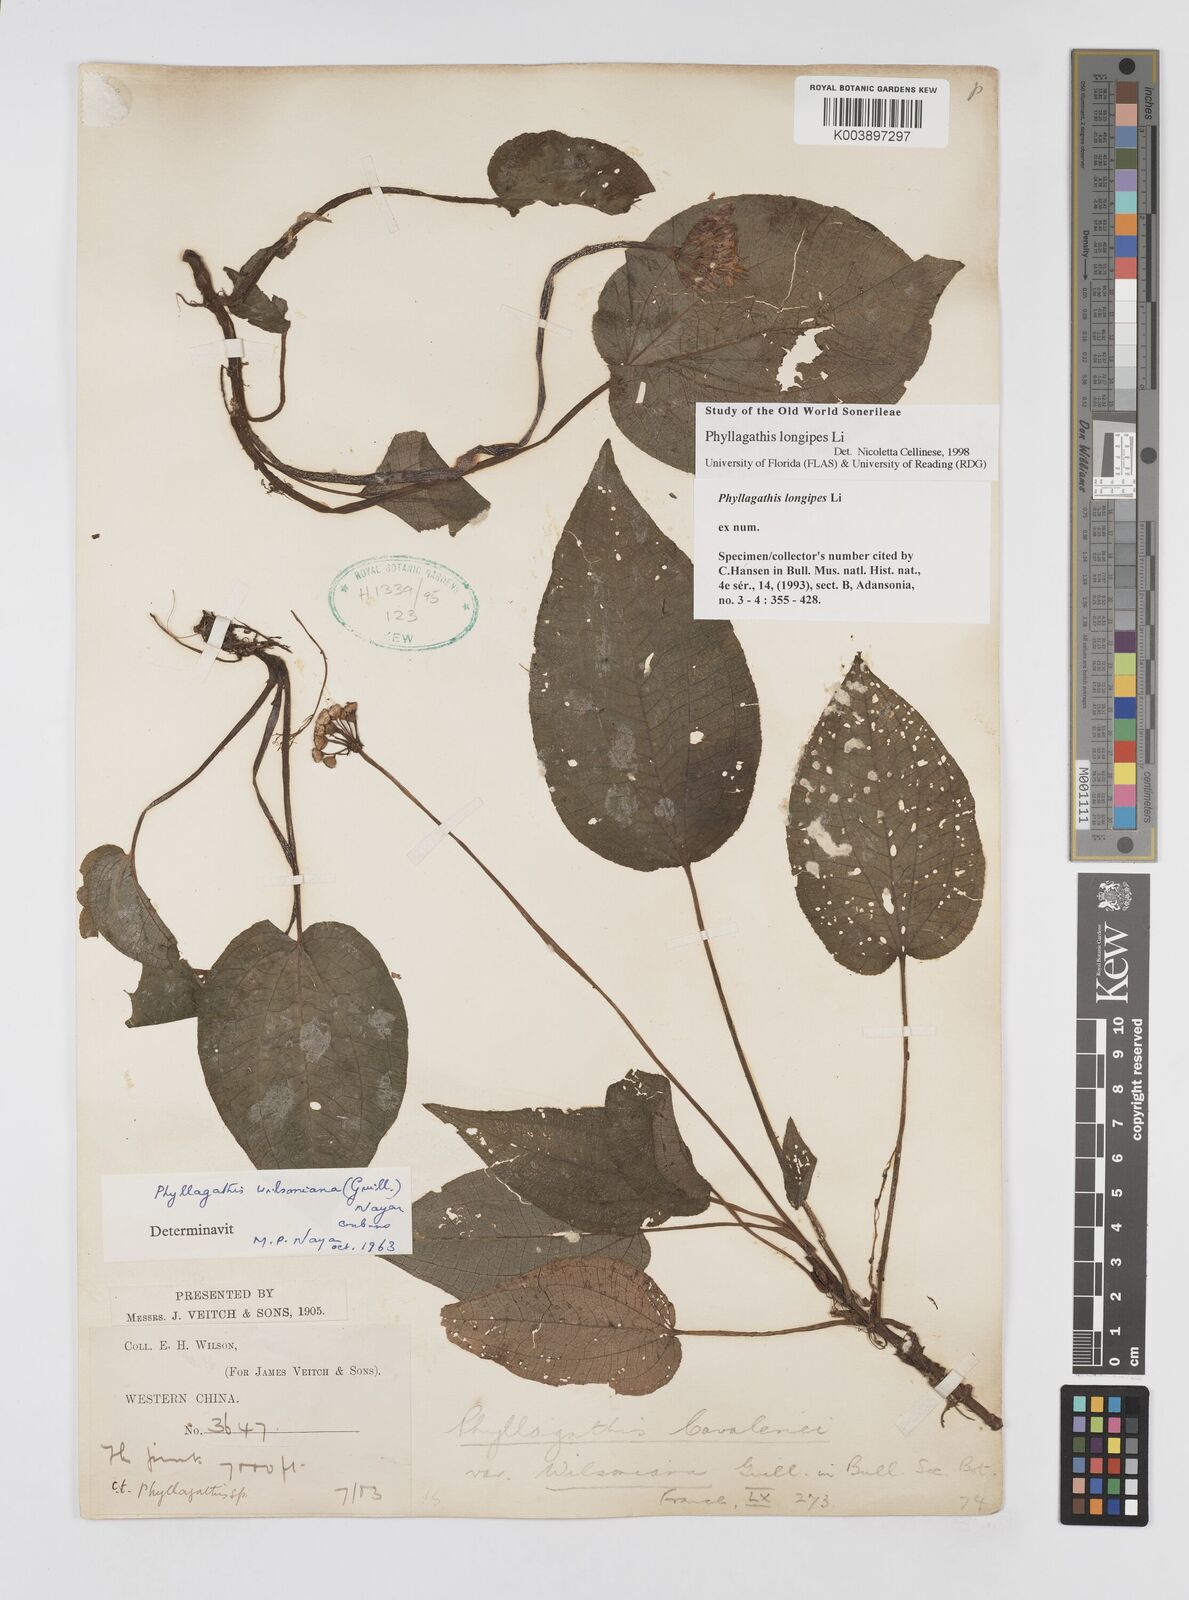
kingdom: Plantae
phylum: Tracheophyta
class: Magnoliopsida
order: Myrtales
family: Melastomataceae
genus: Phyllagathis
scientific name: Phyllagathis cavaleriei
